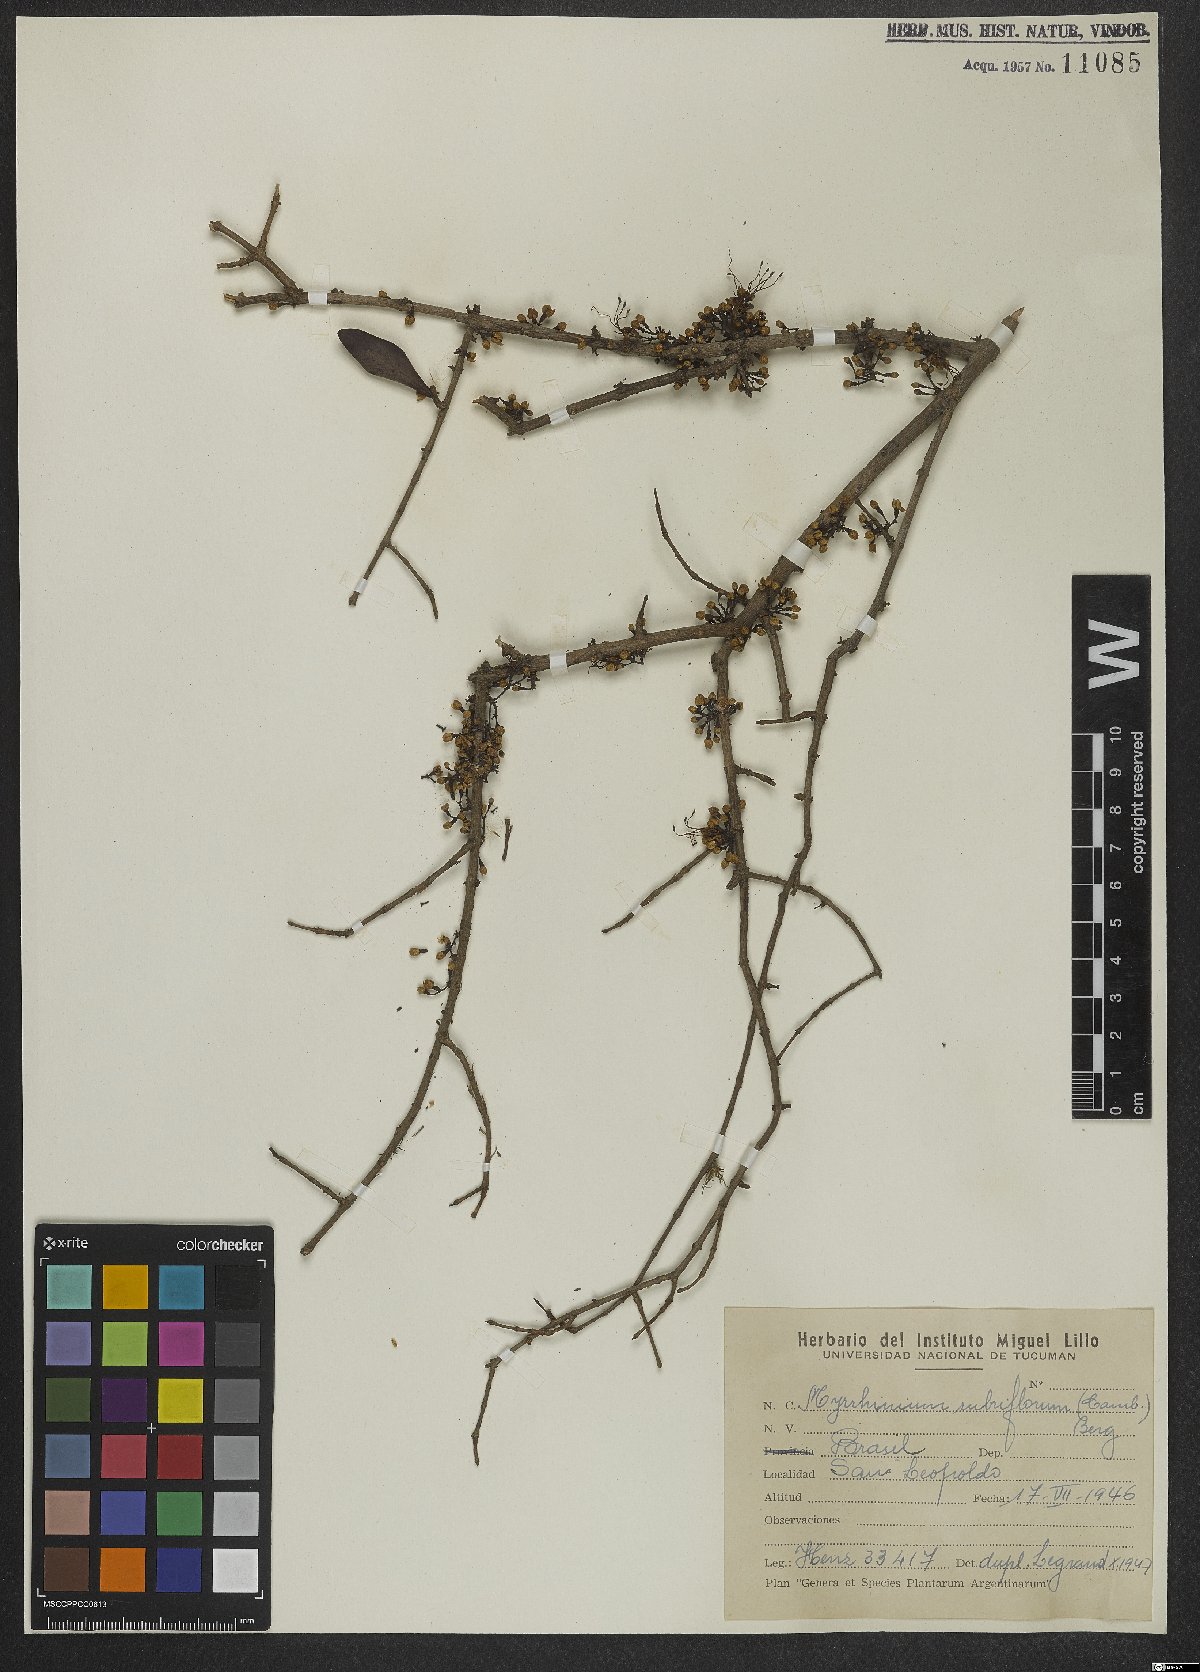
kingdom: Plantae
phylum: Tracheophyta
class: Magnoliopsida
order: Myrtales
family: Myrtaceae
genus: Myrrhinium
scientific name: Myrrhinium atropurpureum
